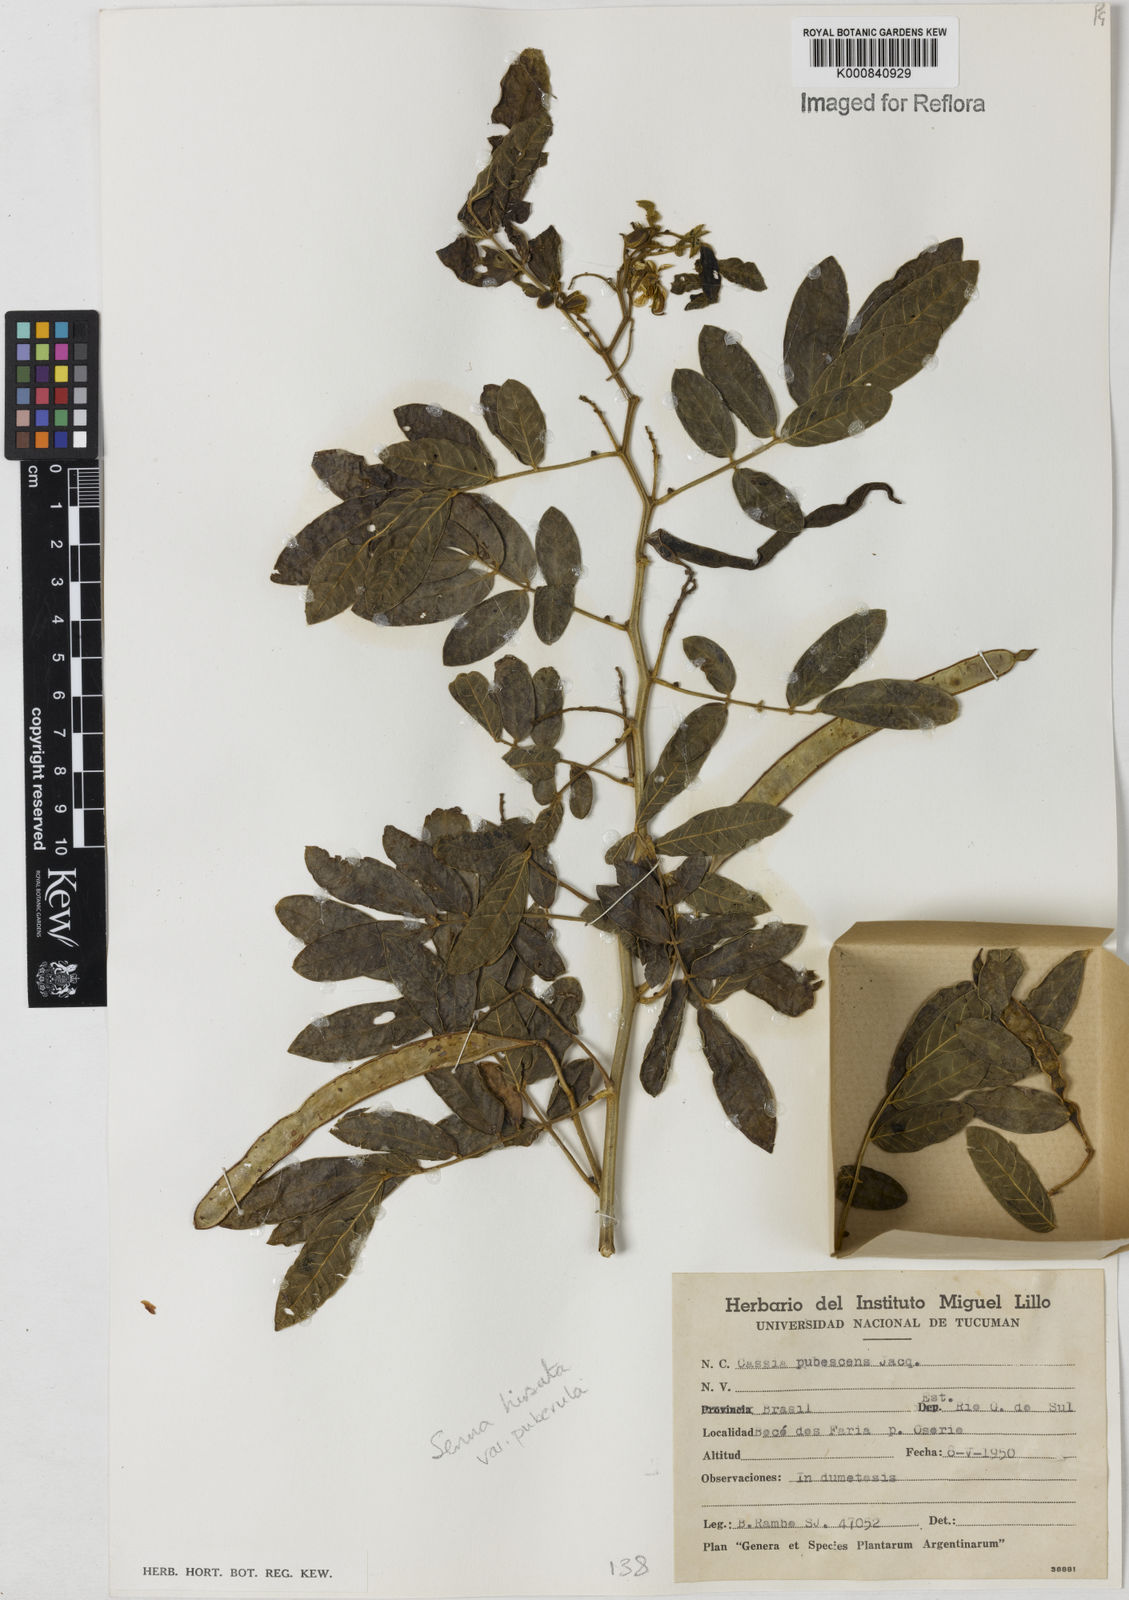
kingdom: Plantae
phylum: Tracheophyta
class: Magnoliopsida
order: Fabales
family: Fabaceae
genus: Senna
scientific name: Senna hirsuta
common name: Woolly senna
